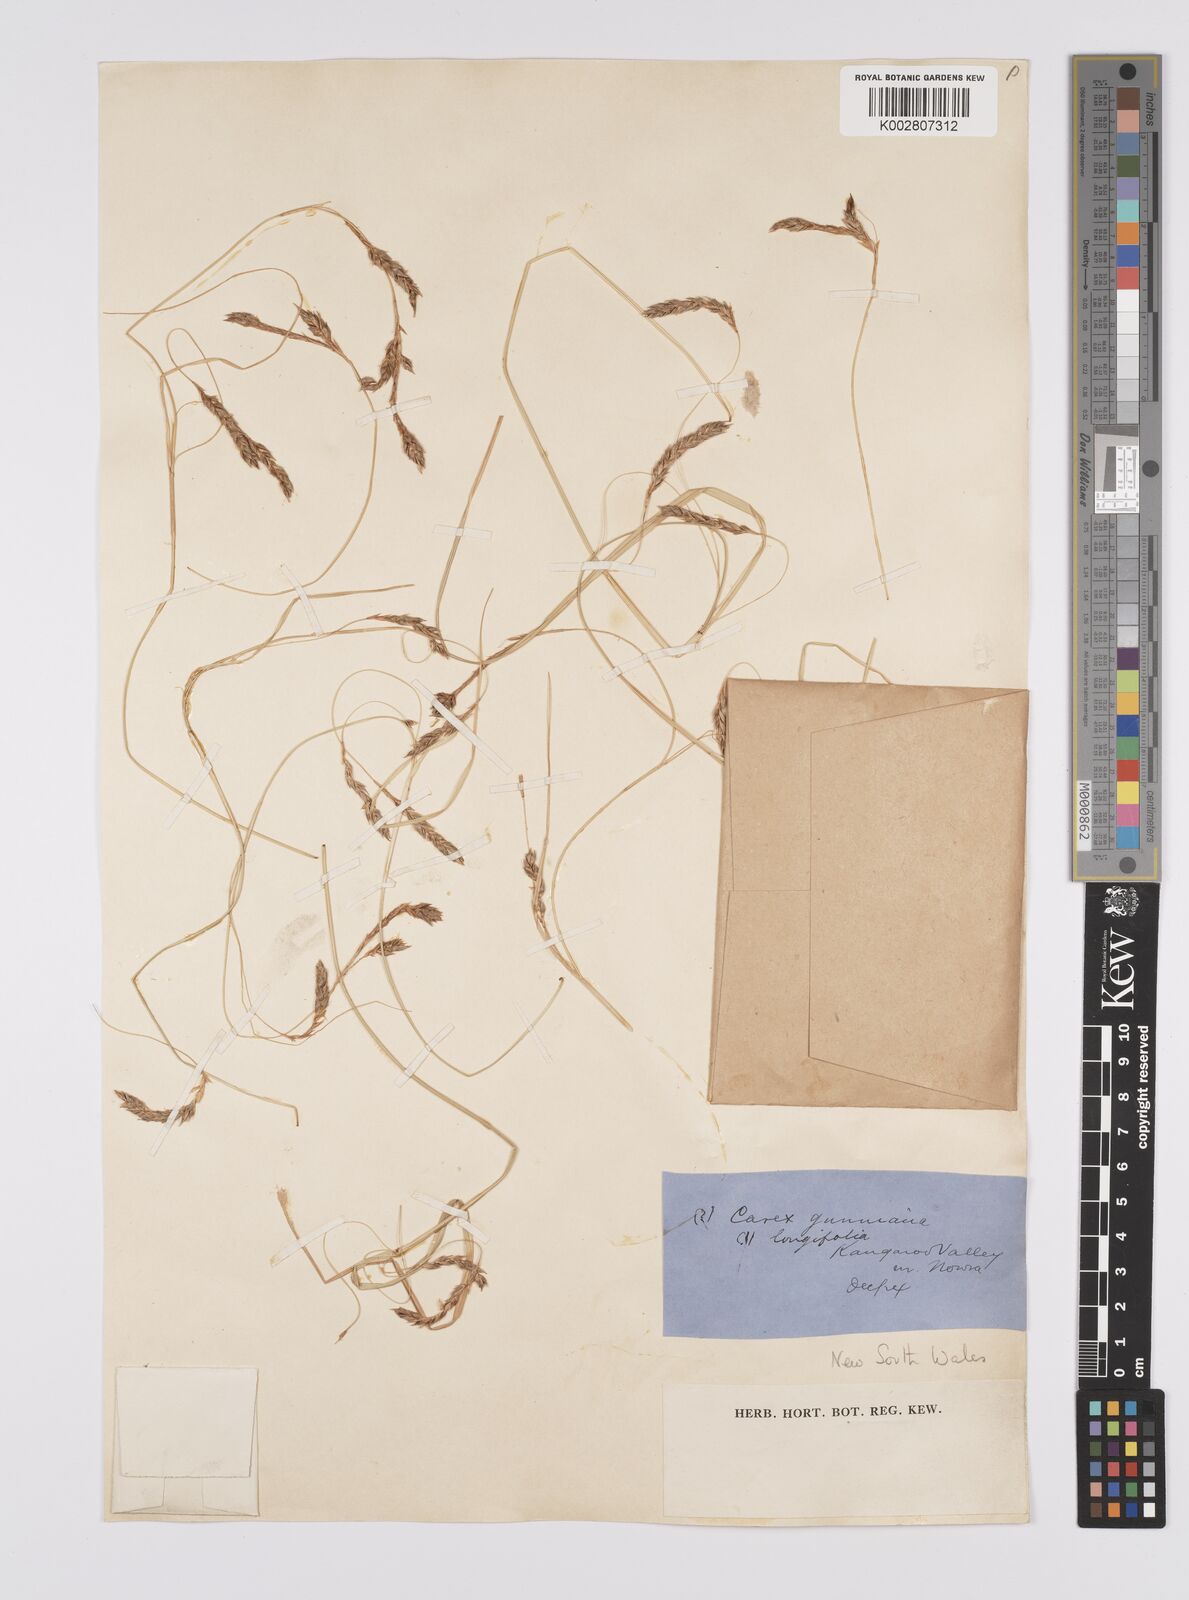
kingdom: Plantae
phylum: Tracheophyta
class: Liliopsida
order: Poales
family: Cyperaceae
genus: Carex
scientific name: Carex pseudocyperus
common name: Cyperus sedge
